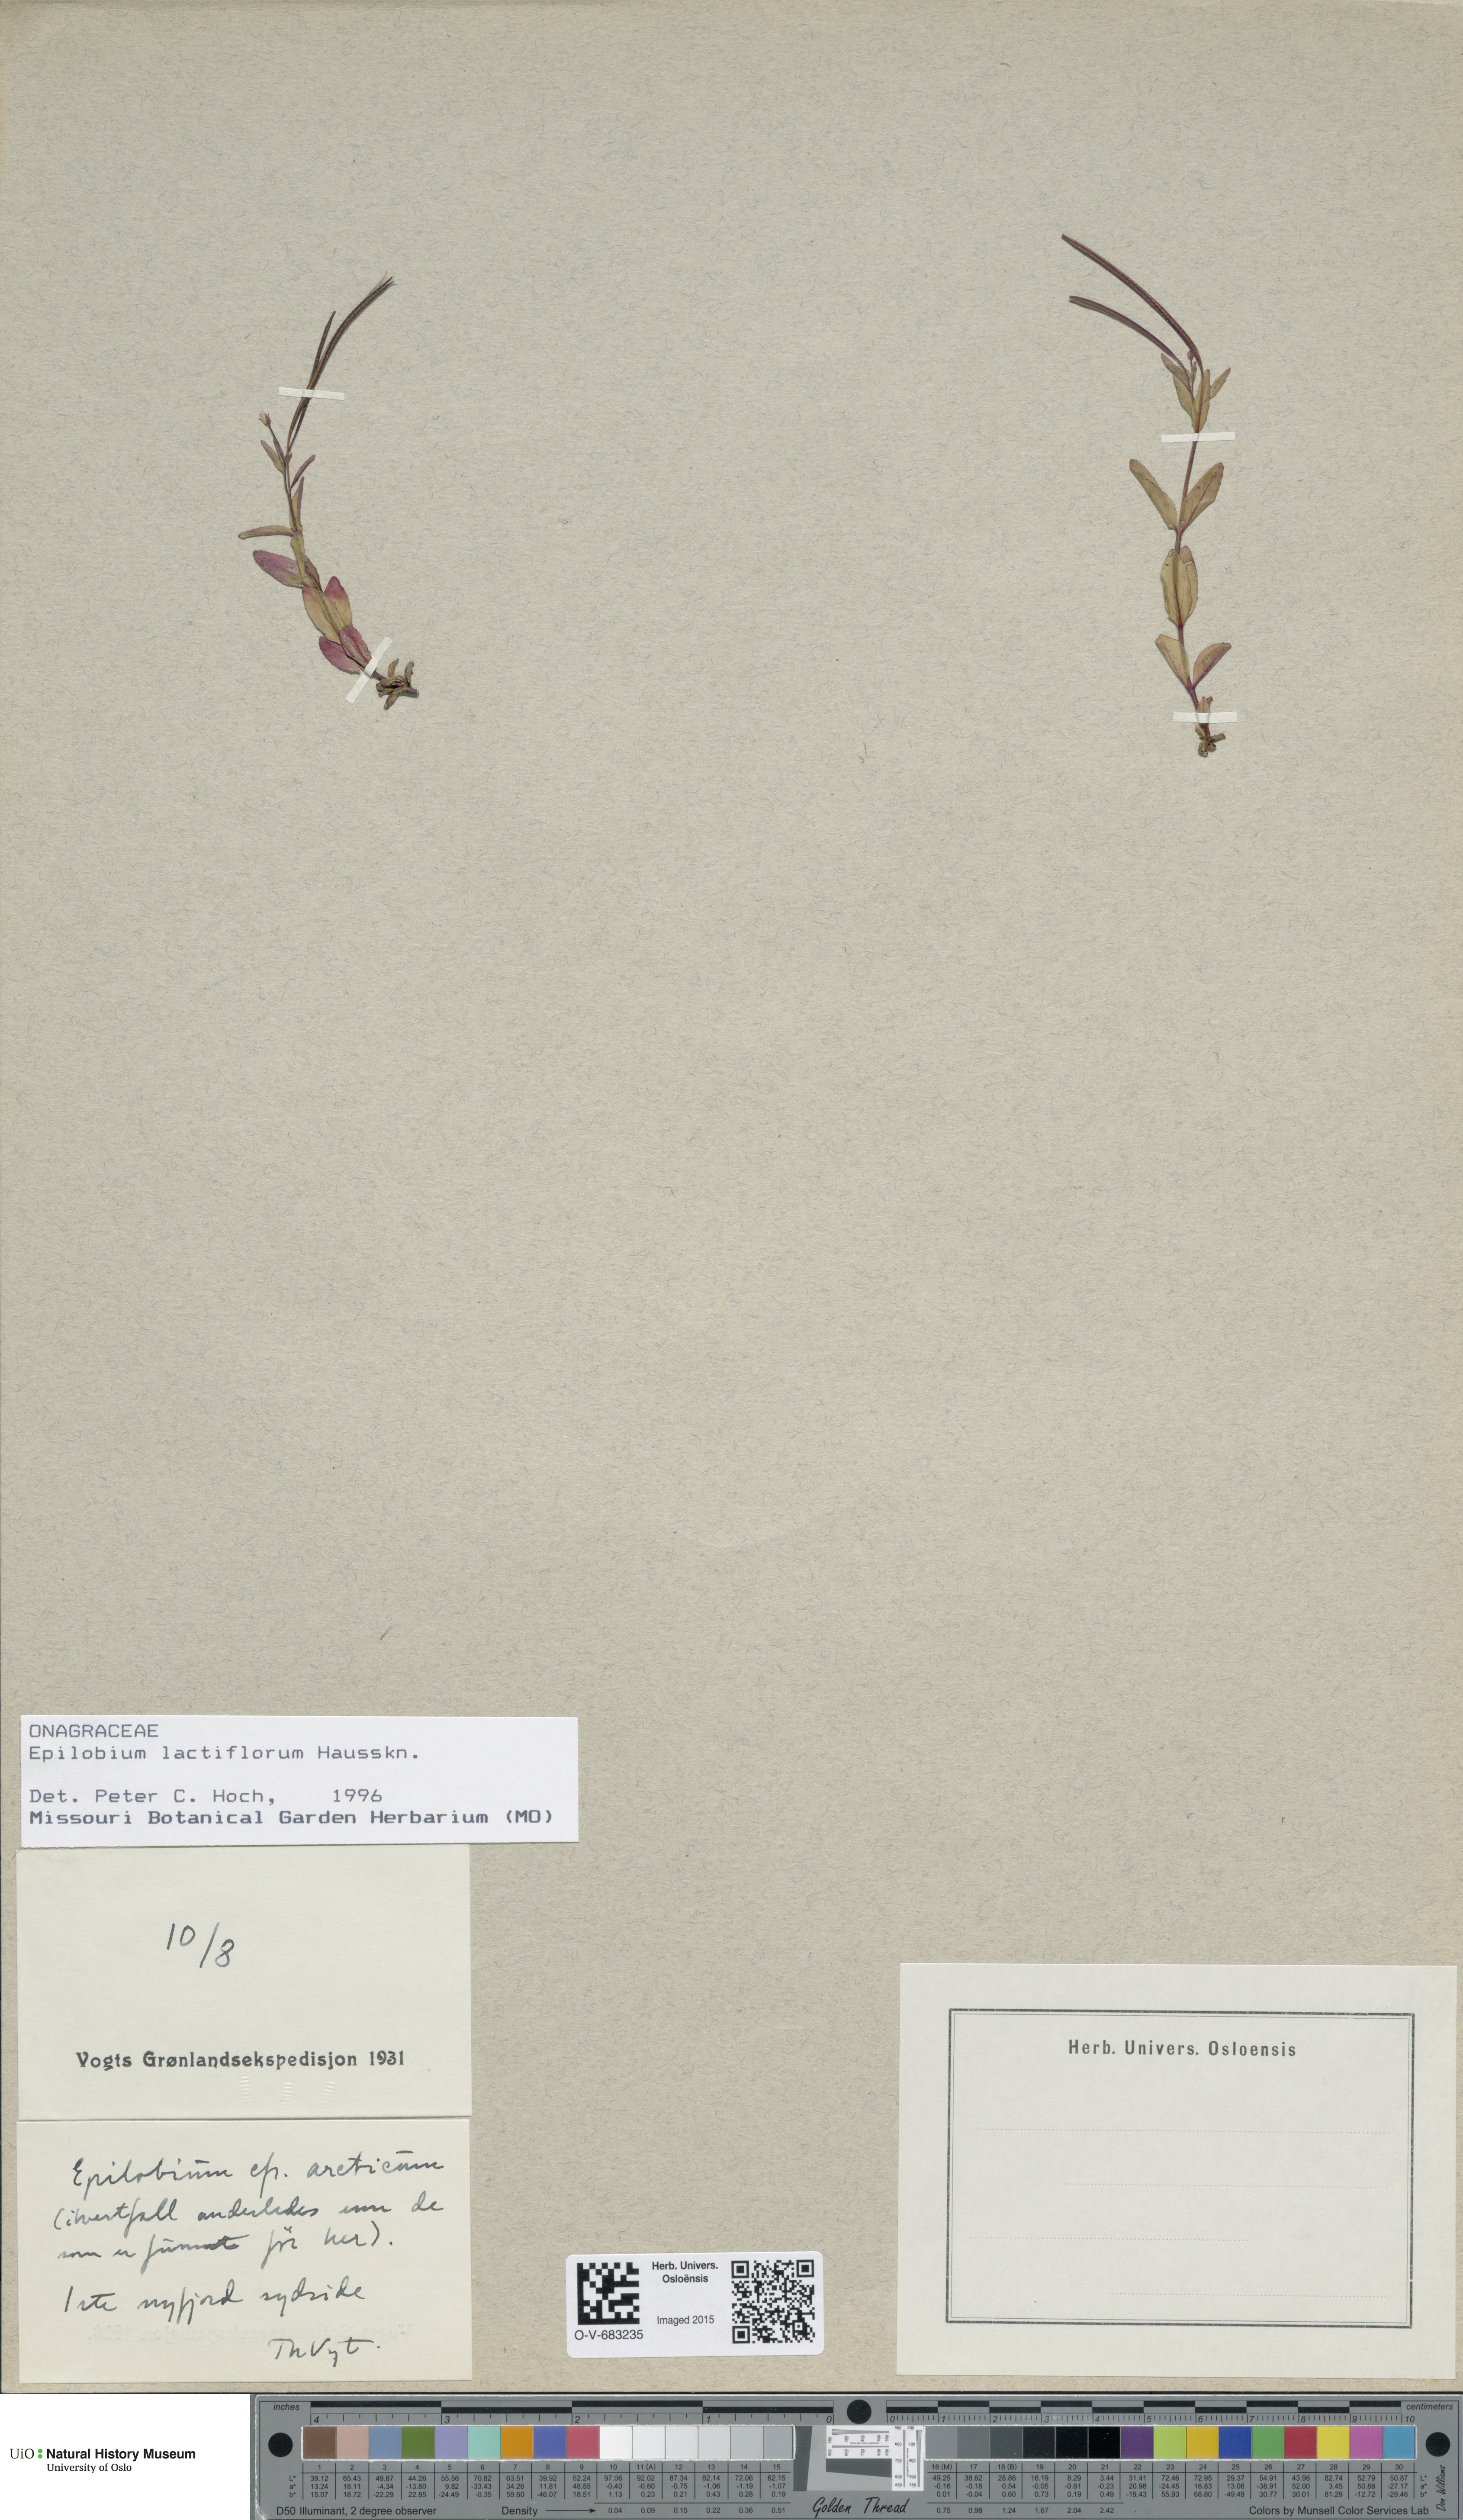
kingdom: Plantae
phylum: Tracheophyta
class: Magnoliopsida
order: Myrtales
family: Onagraceae
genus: Epilobium
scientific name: Epilobium lactiflorum
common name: Milkflower willowherb
